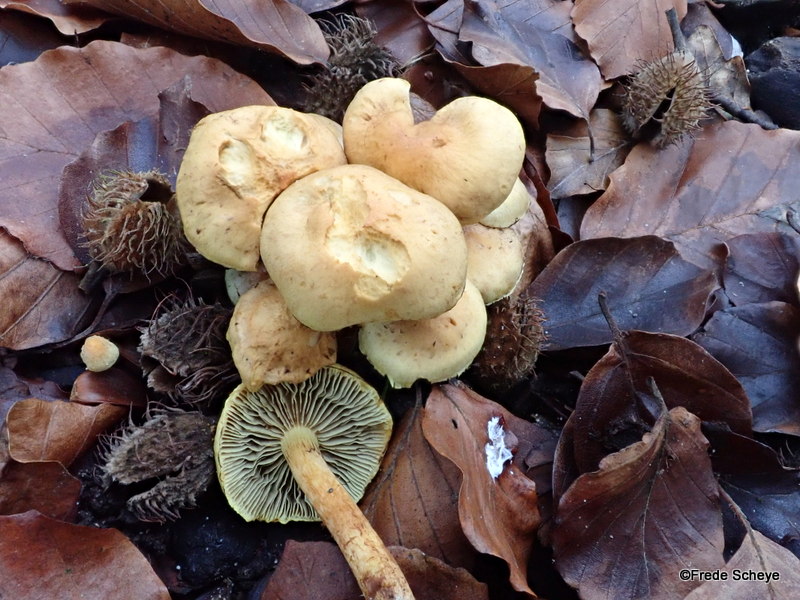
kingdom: Fungi
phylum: Basidiomycota
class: Agaricomycetes
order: Agaricales
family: Strophariaceae
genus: Hypholoma
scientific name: Hypholoma fasciculare
